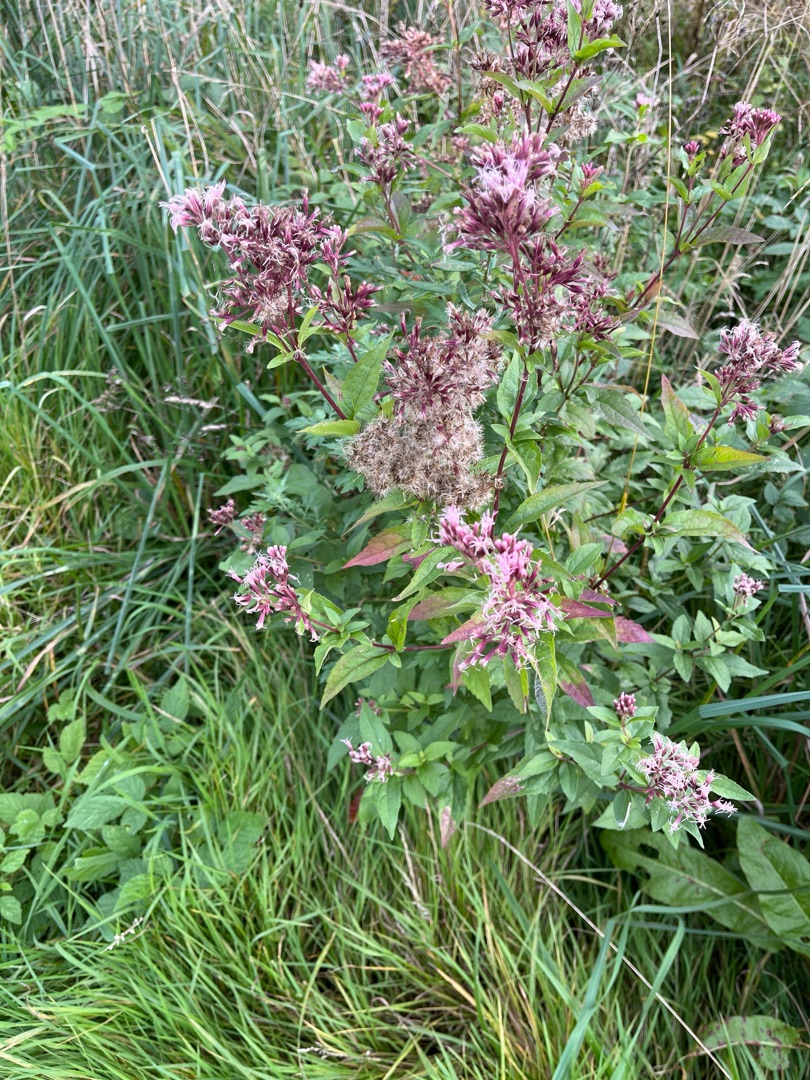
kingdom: Plantae
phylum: Tracheophyta
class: Magnoliopsida
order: Asterales
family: Asteraceae
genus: Eupatorium
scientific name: Eupatorium cannabinum
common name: Hjortetrøst
